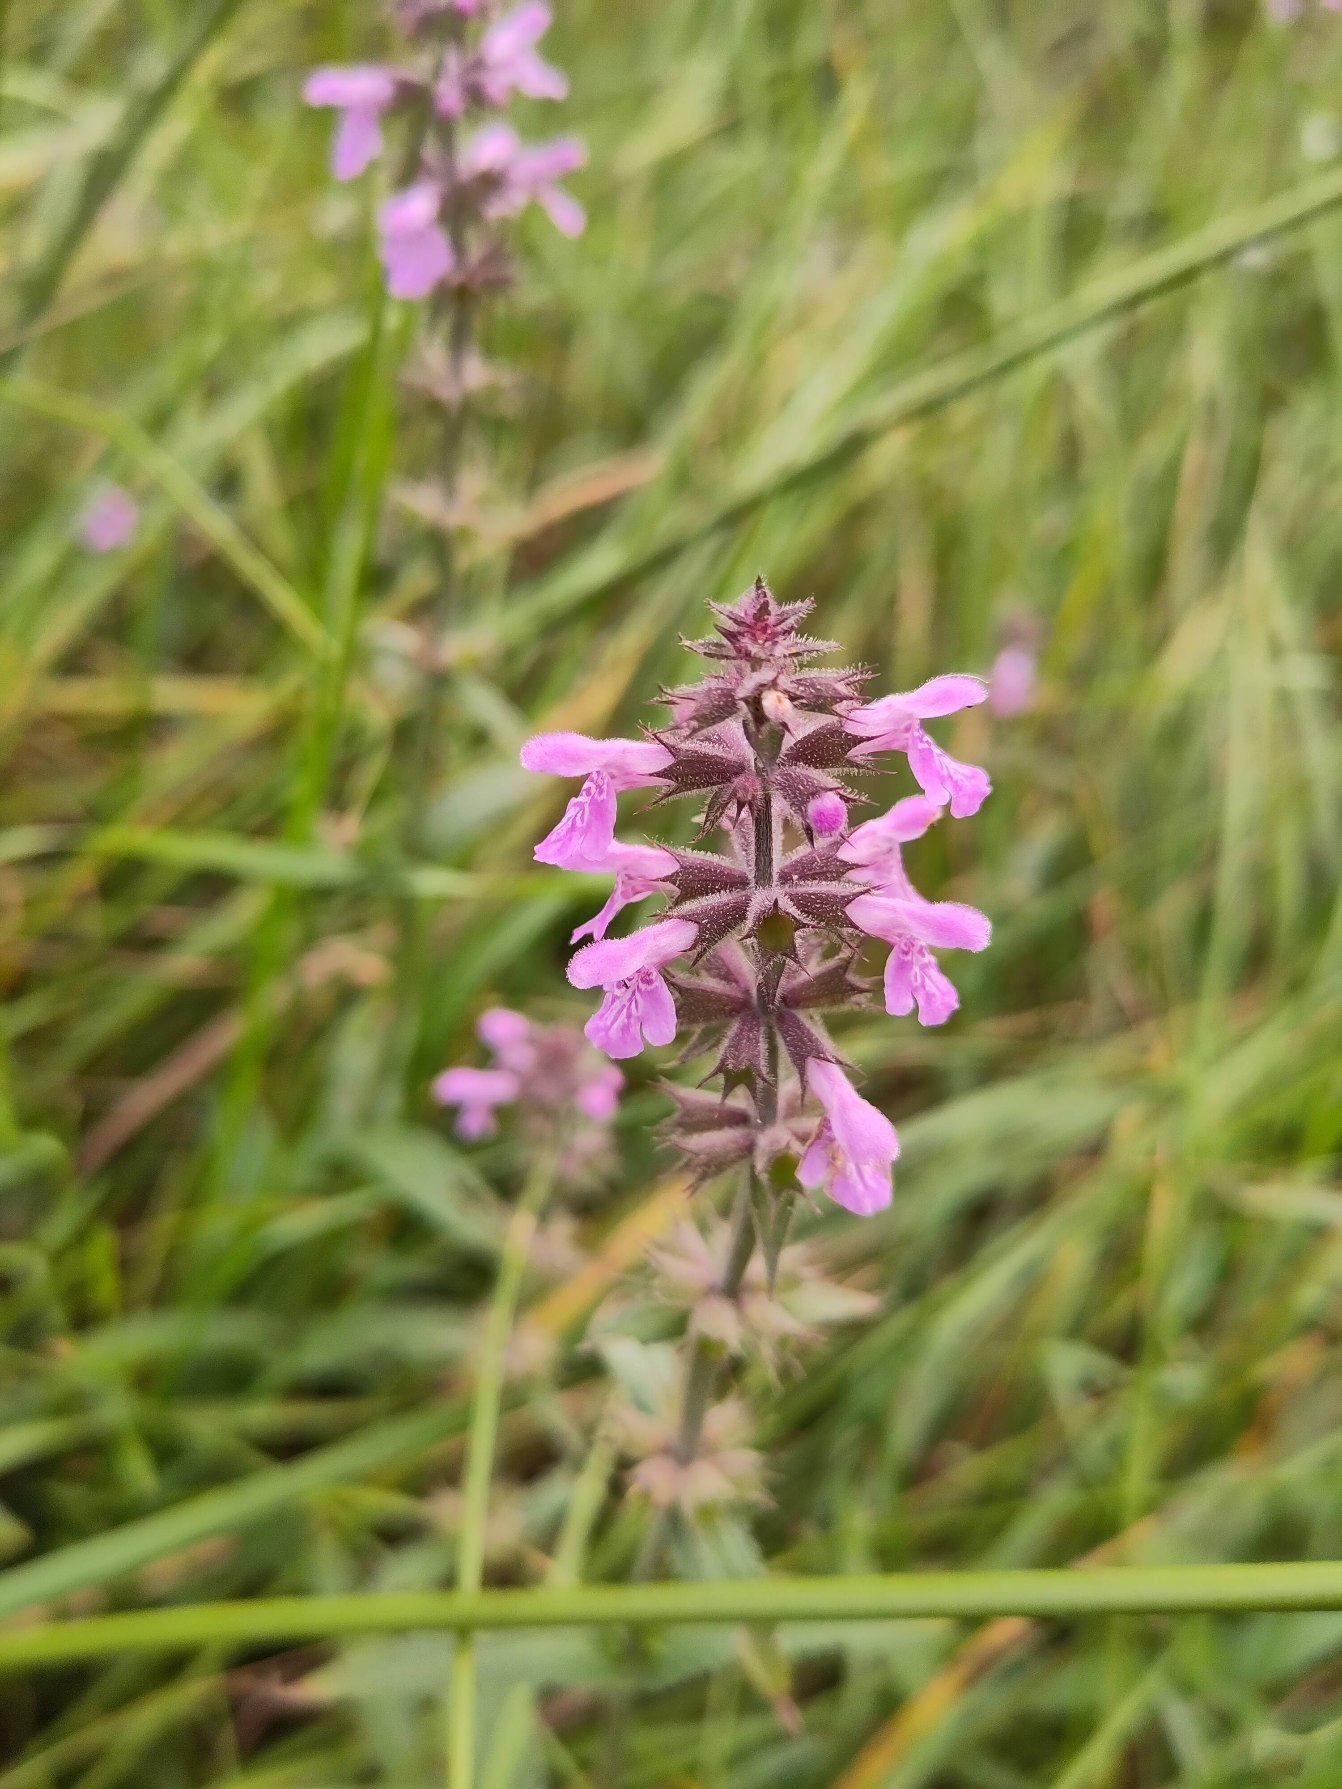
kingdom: Plantae
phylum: Tracheophyta
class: Magnoliopsida
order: Lamiales
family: Lamiaceae
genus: Stachys
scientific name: Stachys palustris
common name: Kær-galtetand
